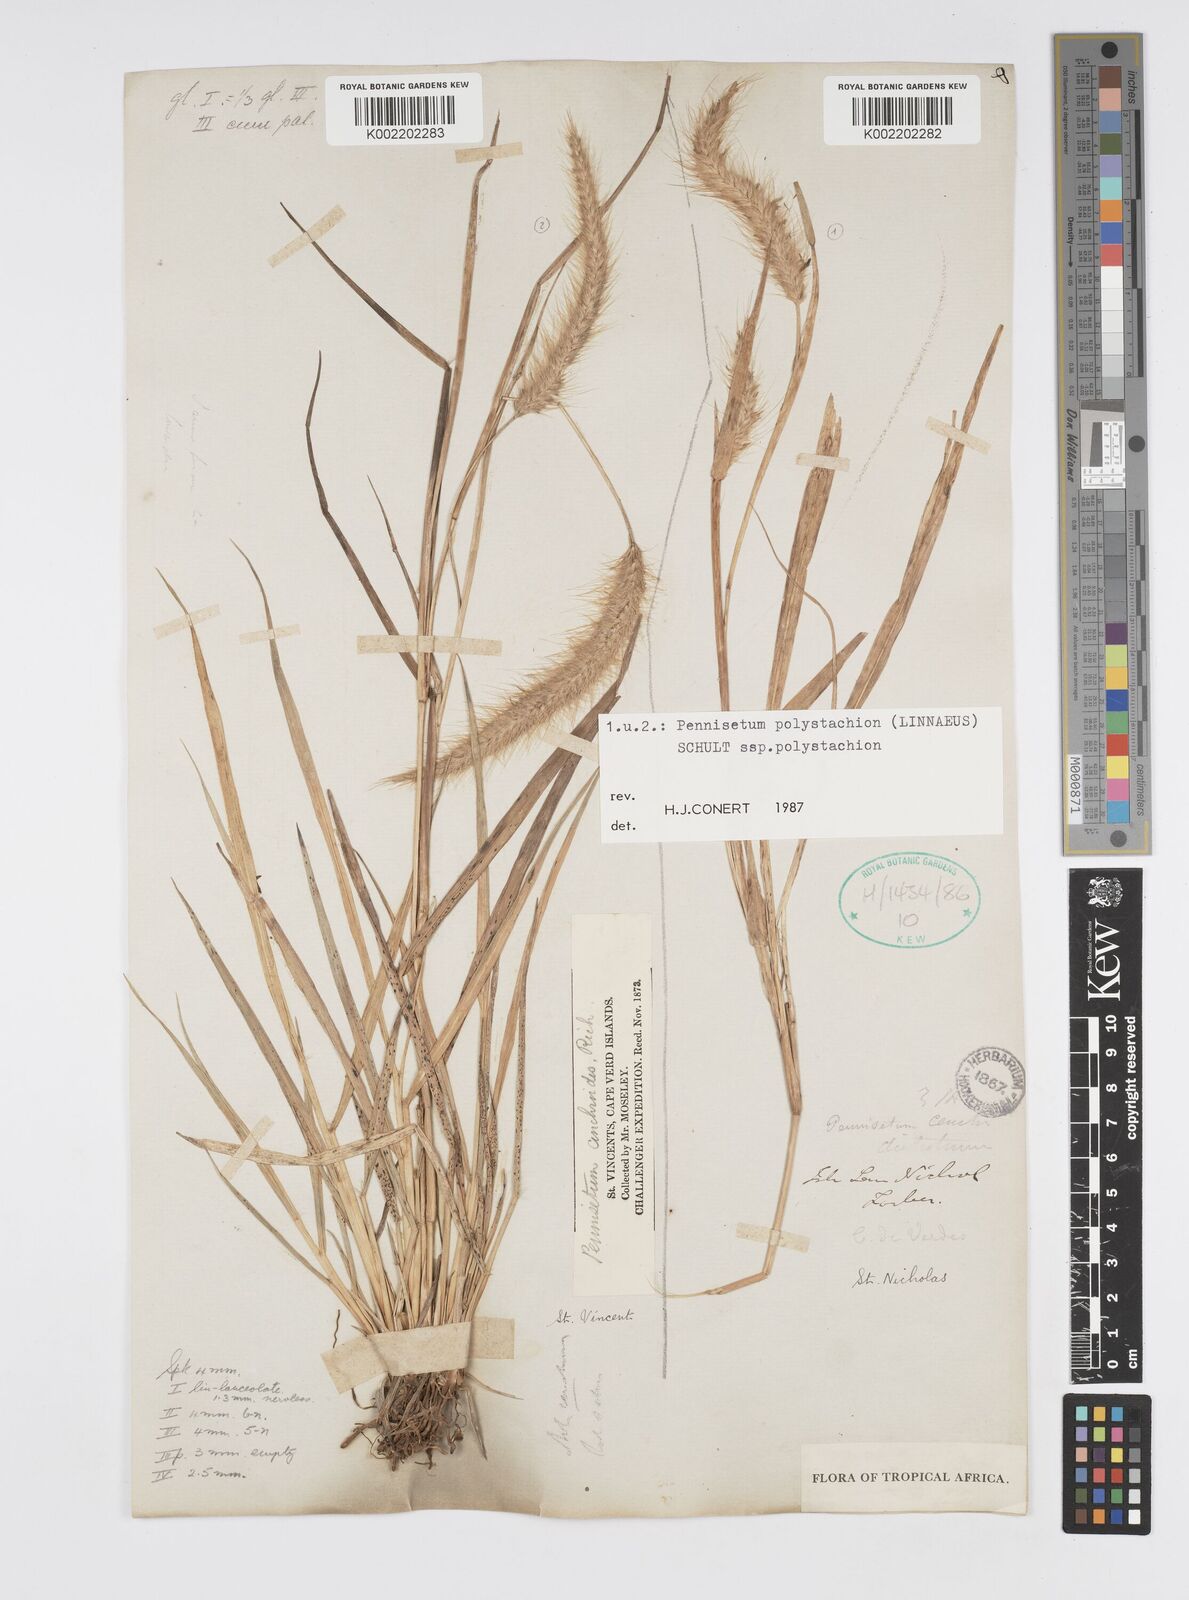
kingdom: Plantae
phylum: Tracheophyta
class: Liliopsida
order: Poales
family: Poaceae
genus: Setaria
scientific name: Setaria parviflora
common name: Knotroot bristle-grass
